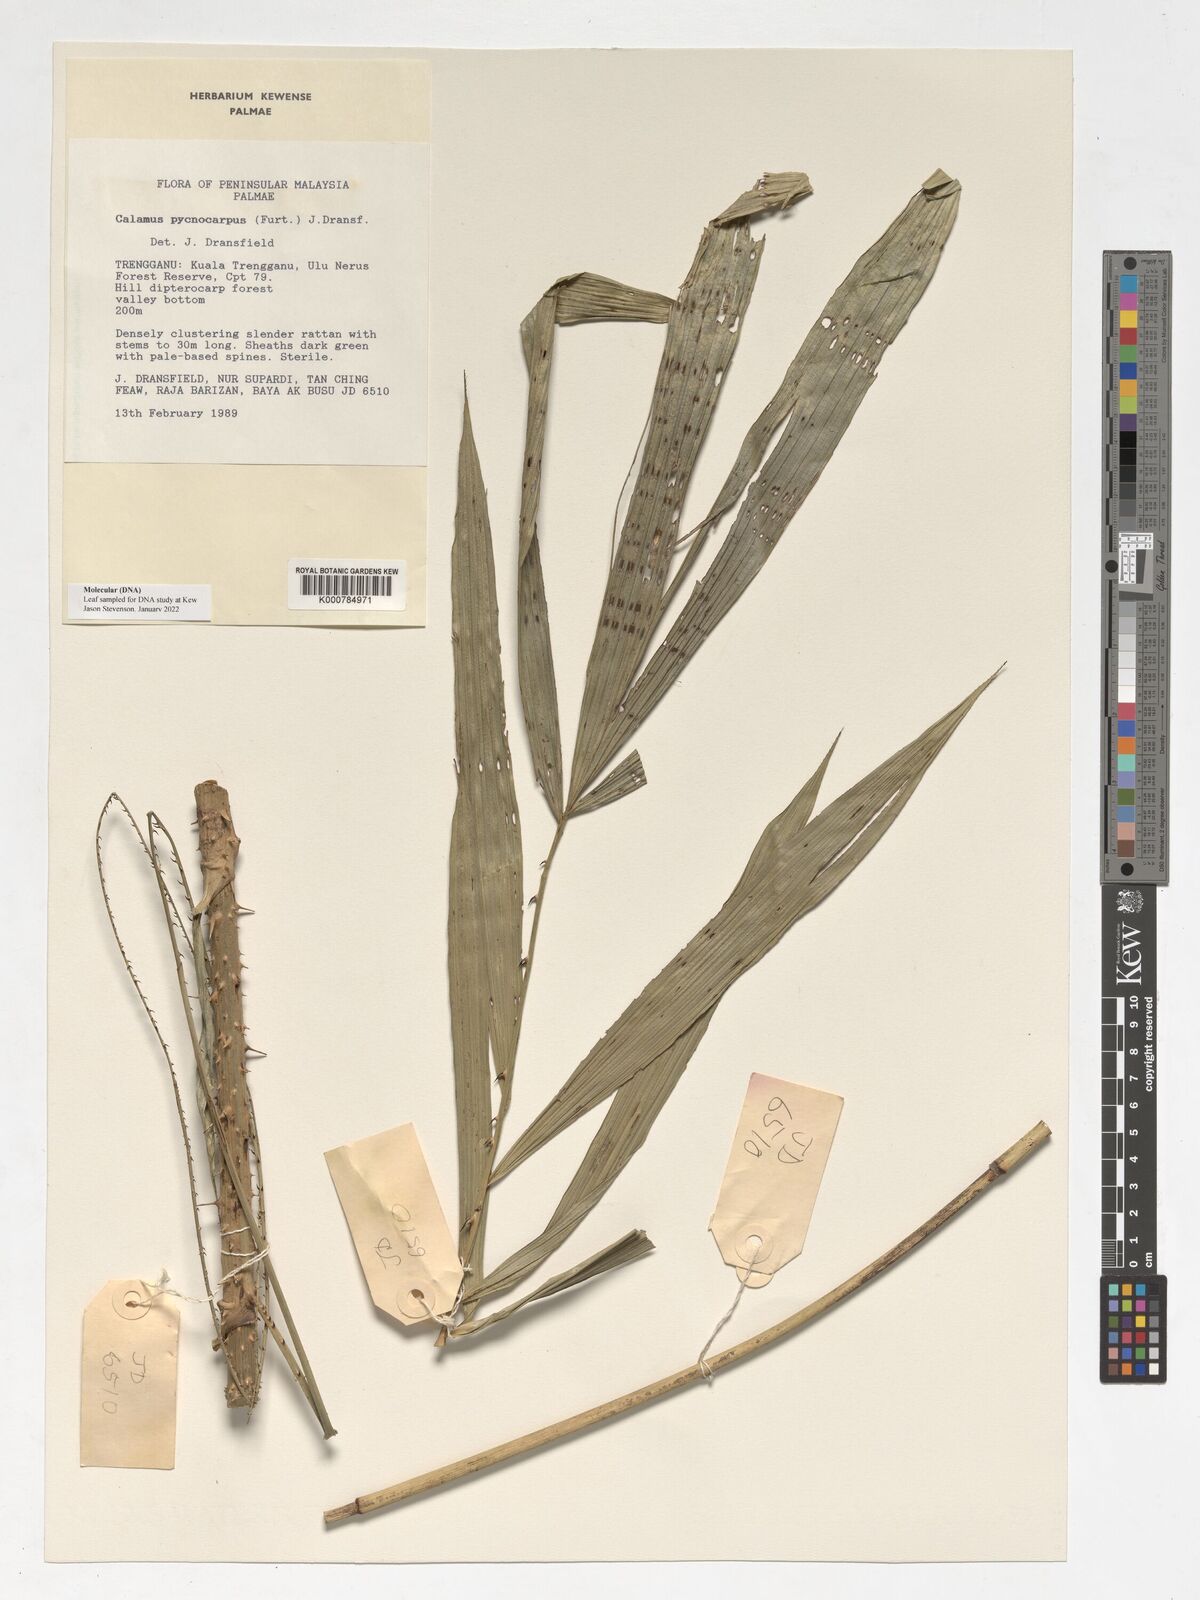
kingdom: Plantae
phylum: Tracheophyta
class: Liliopsida
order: Arecales
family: Arecaceae
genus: Calamus
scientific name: Calamus pycnocarpus
